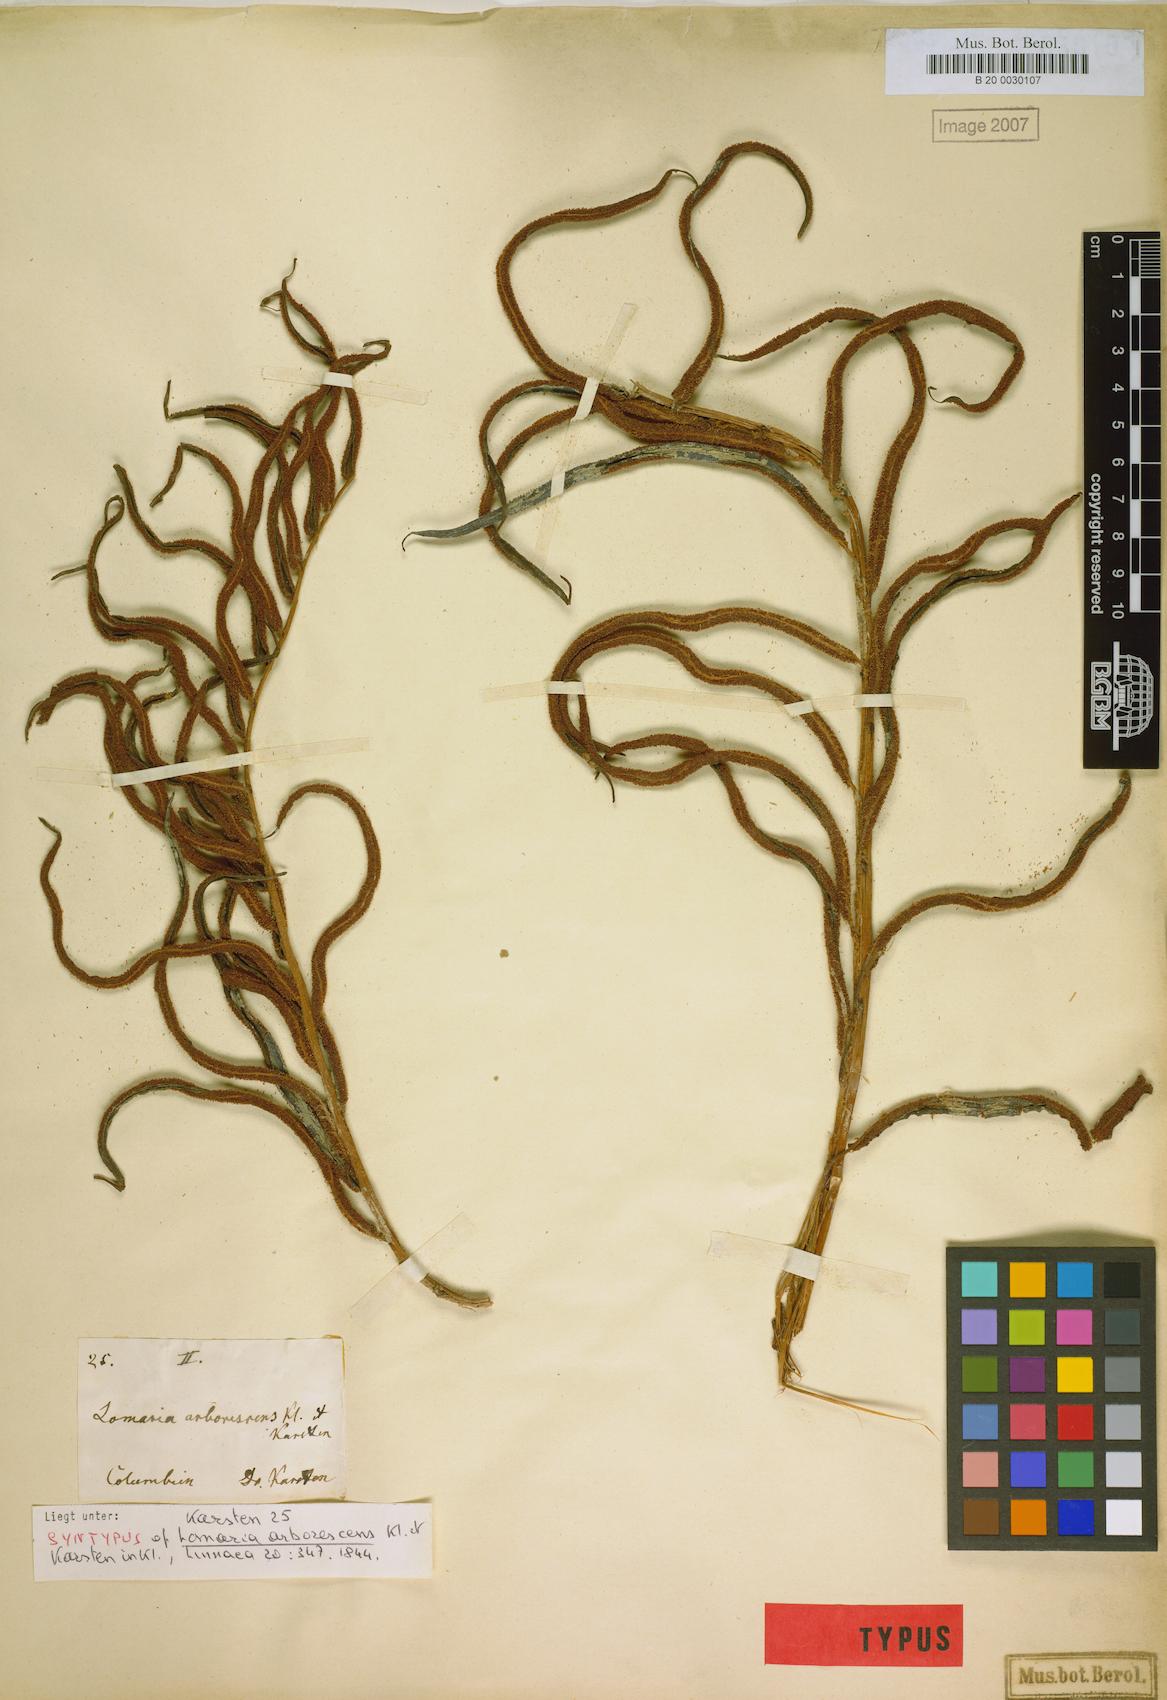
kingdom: Plantae
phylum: Tracheophyta
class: Polypodiopsida
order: Polypodiales
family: Blechnaceae
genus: Parablechnum
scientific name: Parablechnum cordatum
